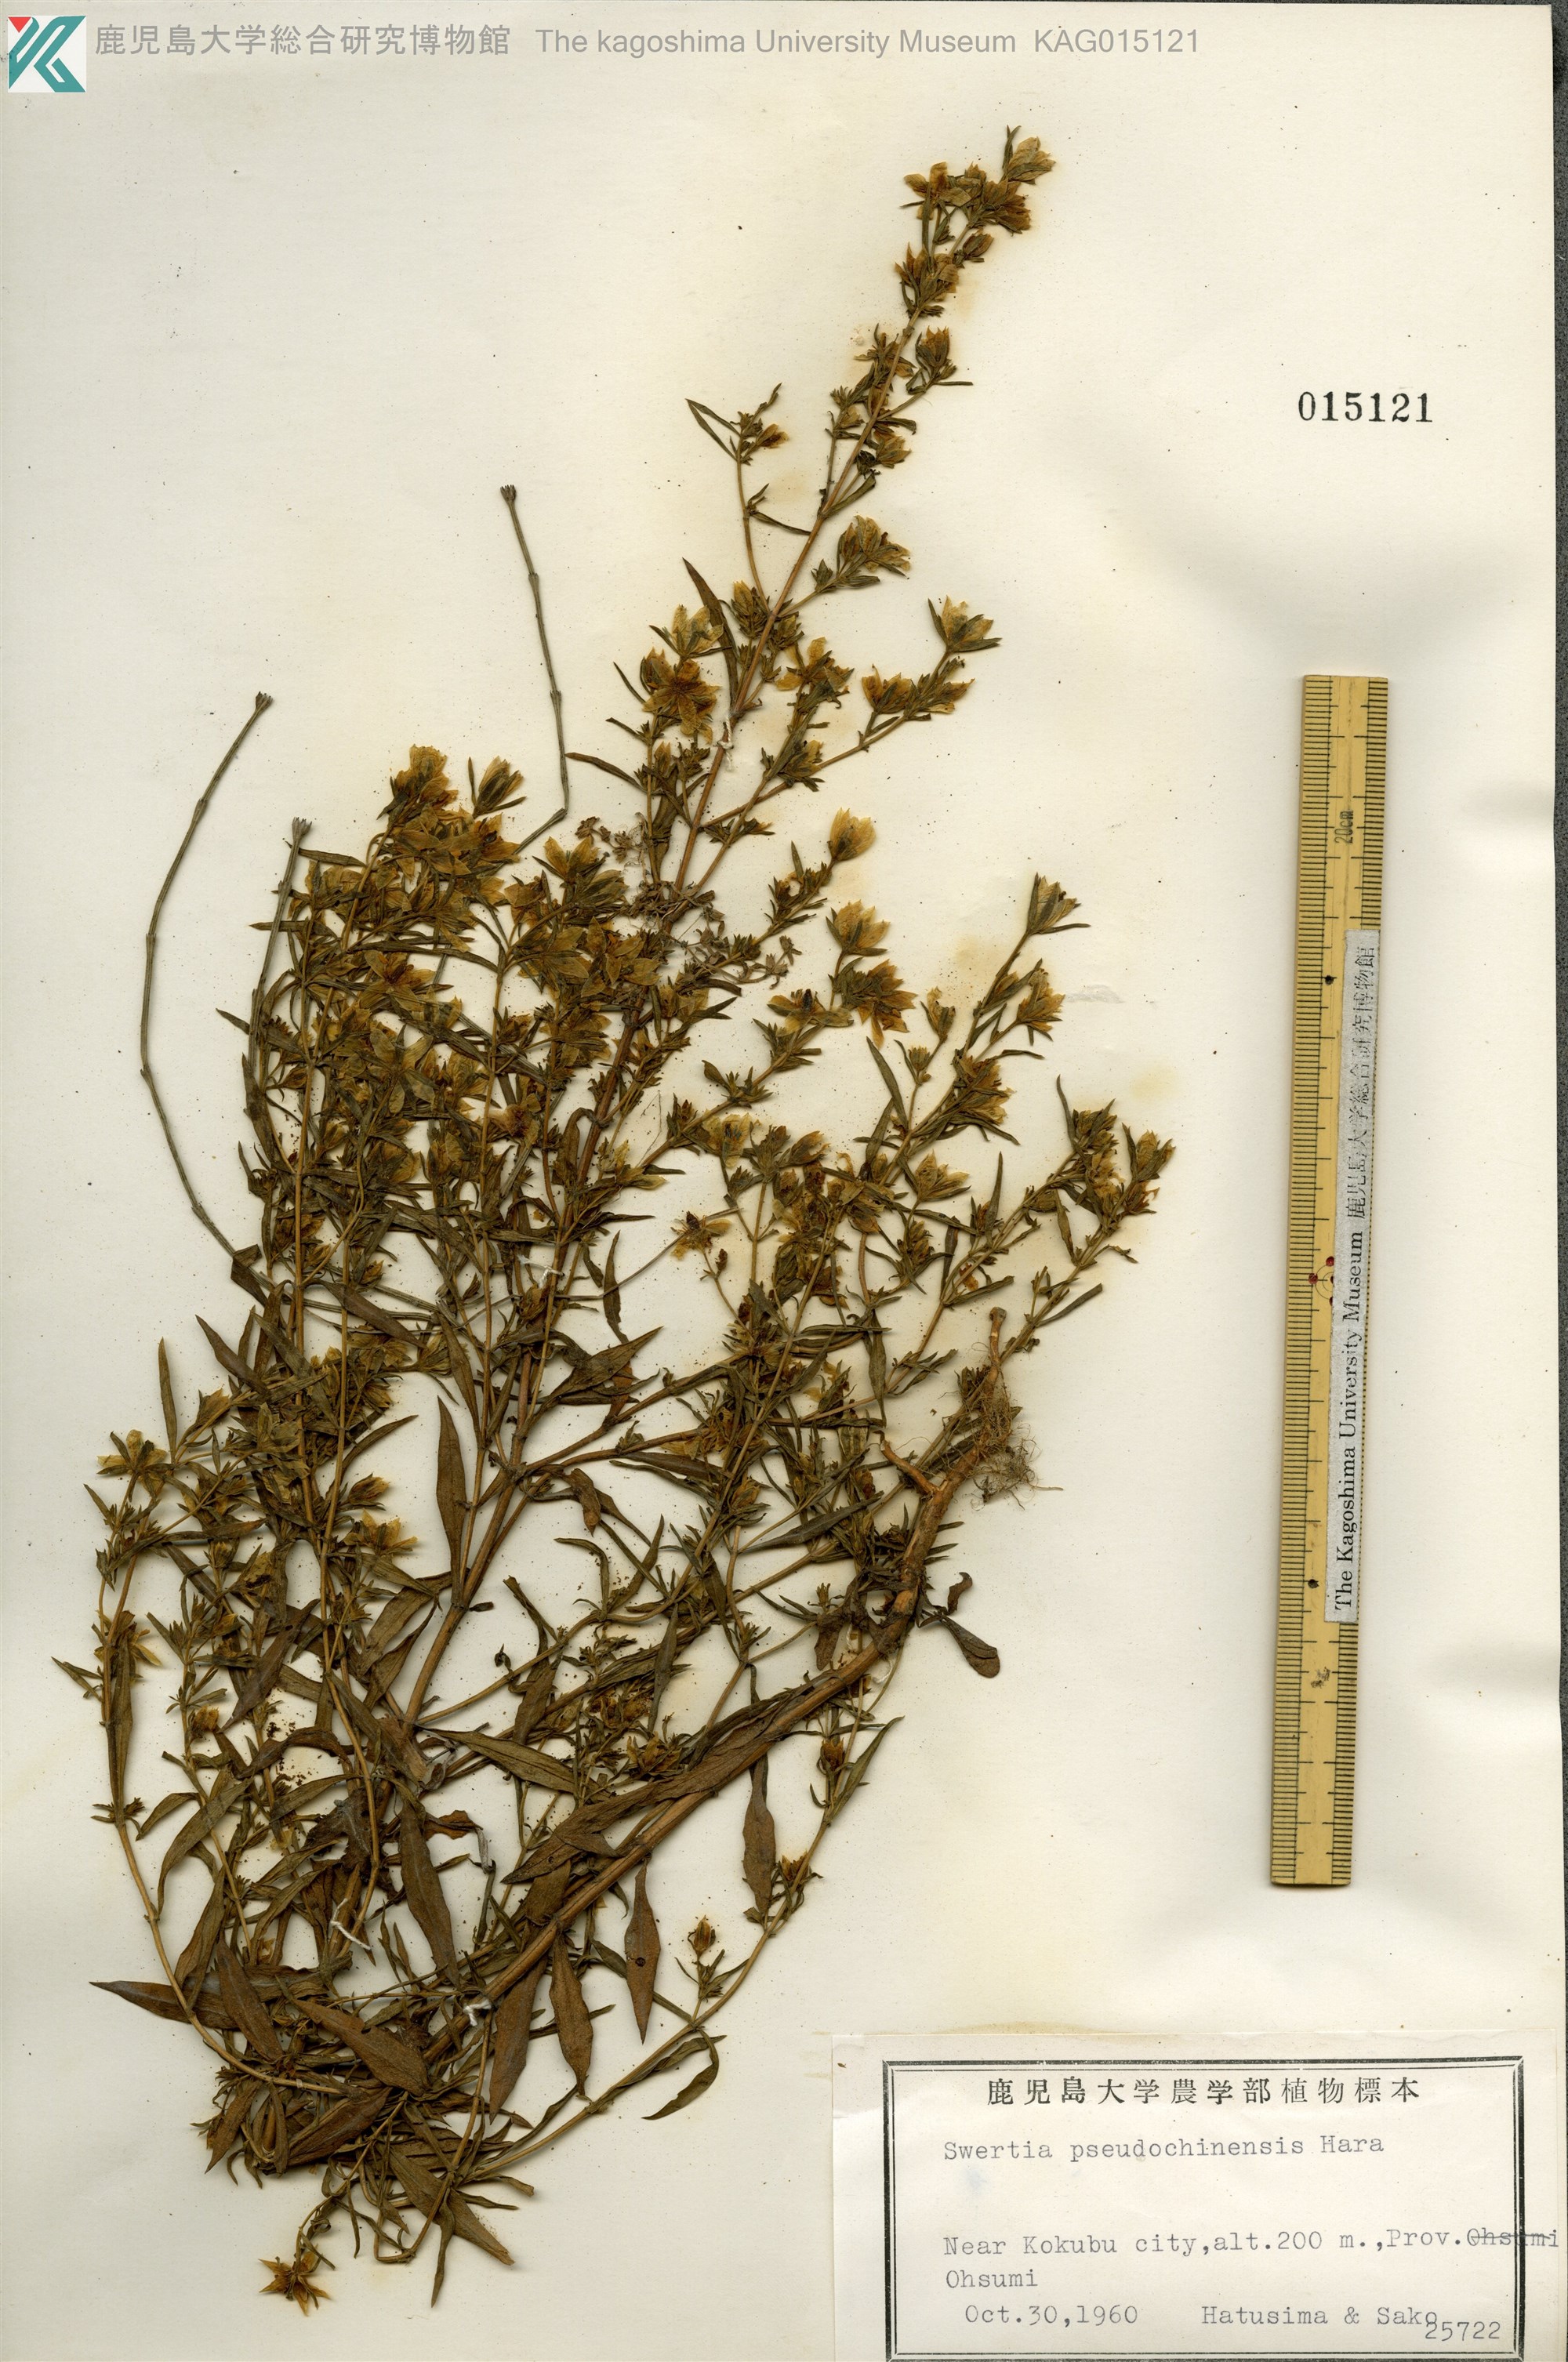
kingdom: Plantae
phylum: Tracheophyta
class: Magnoliopsida
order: Gentianales
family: Gentianaceae
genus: Swertia
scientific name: Swertia pseudochinensis
